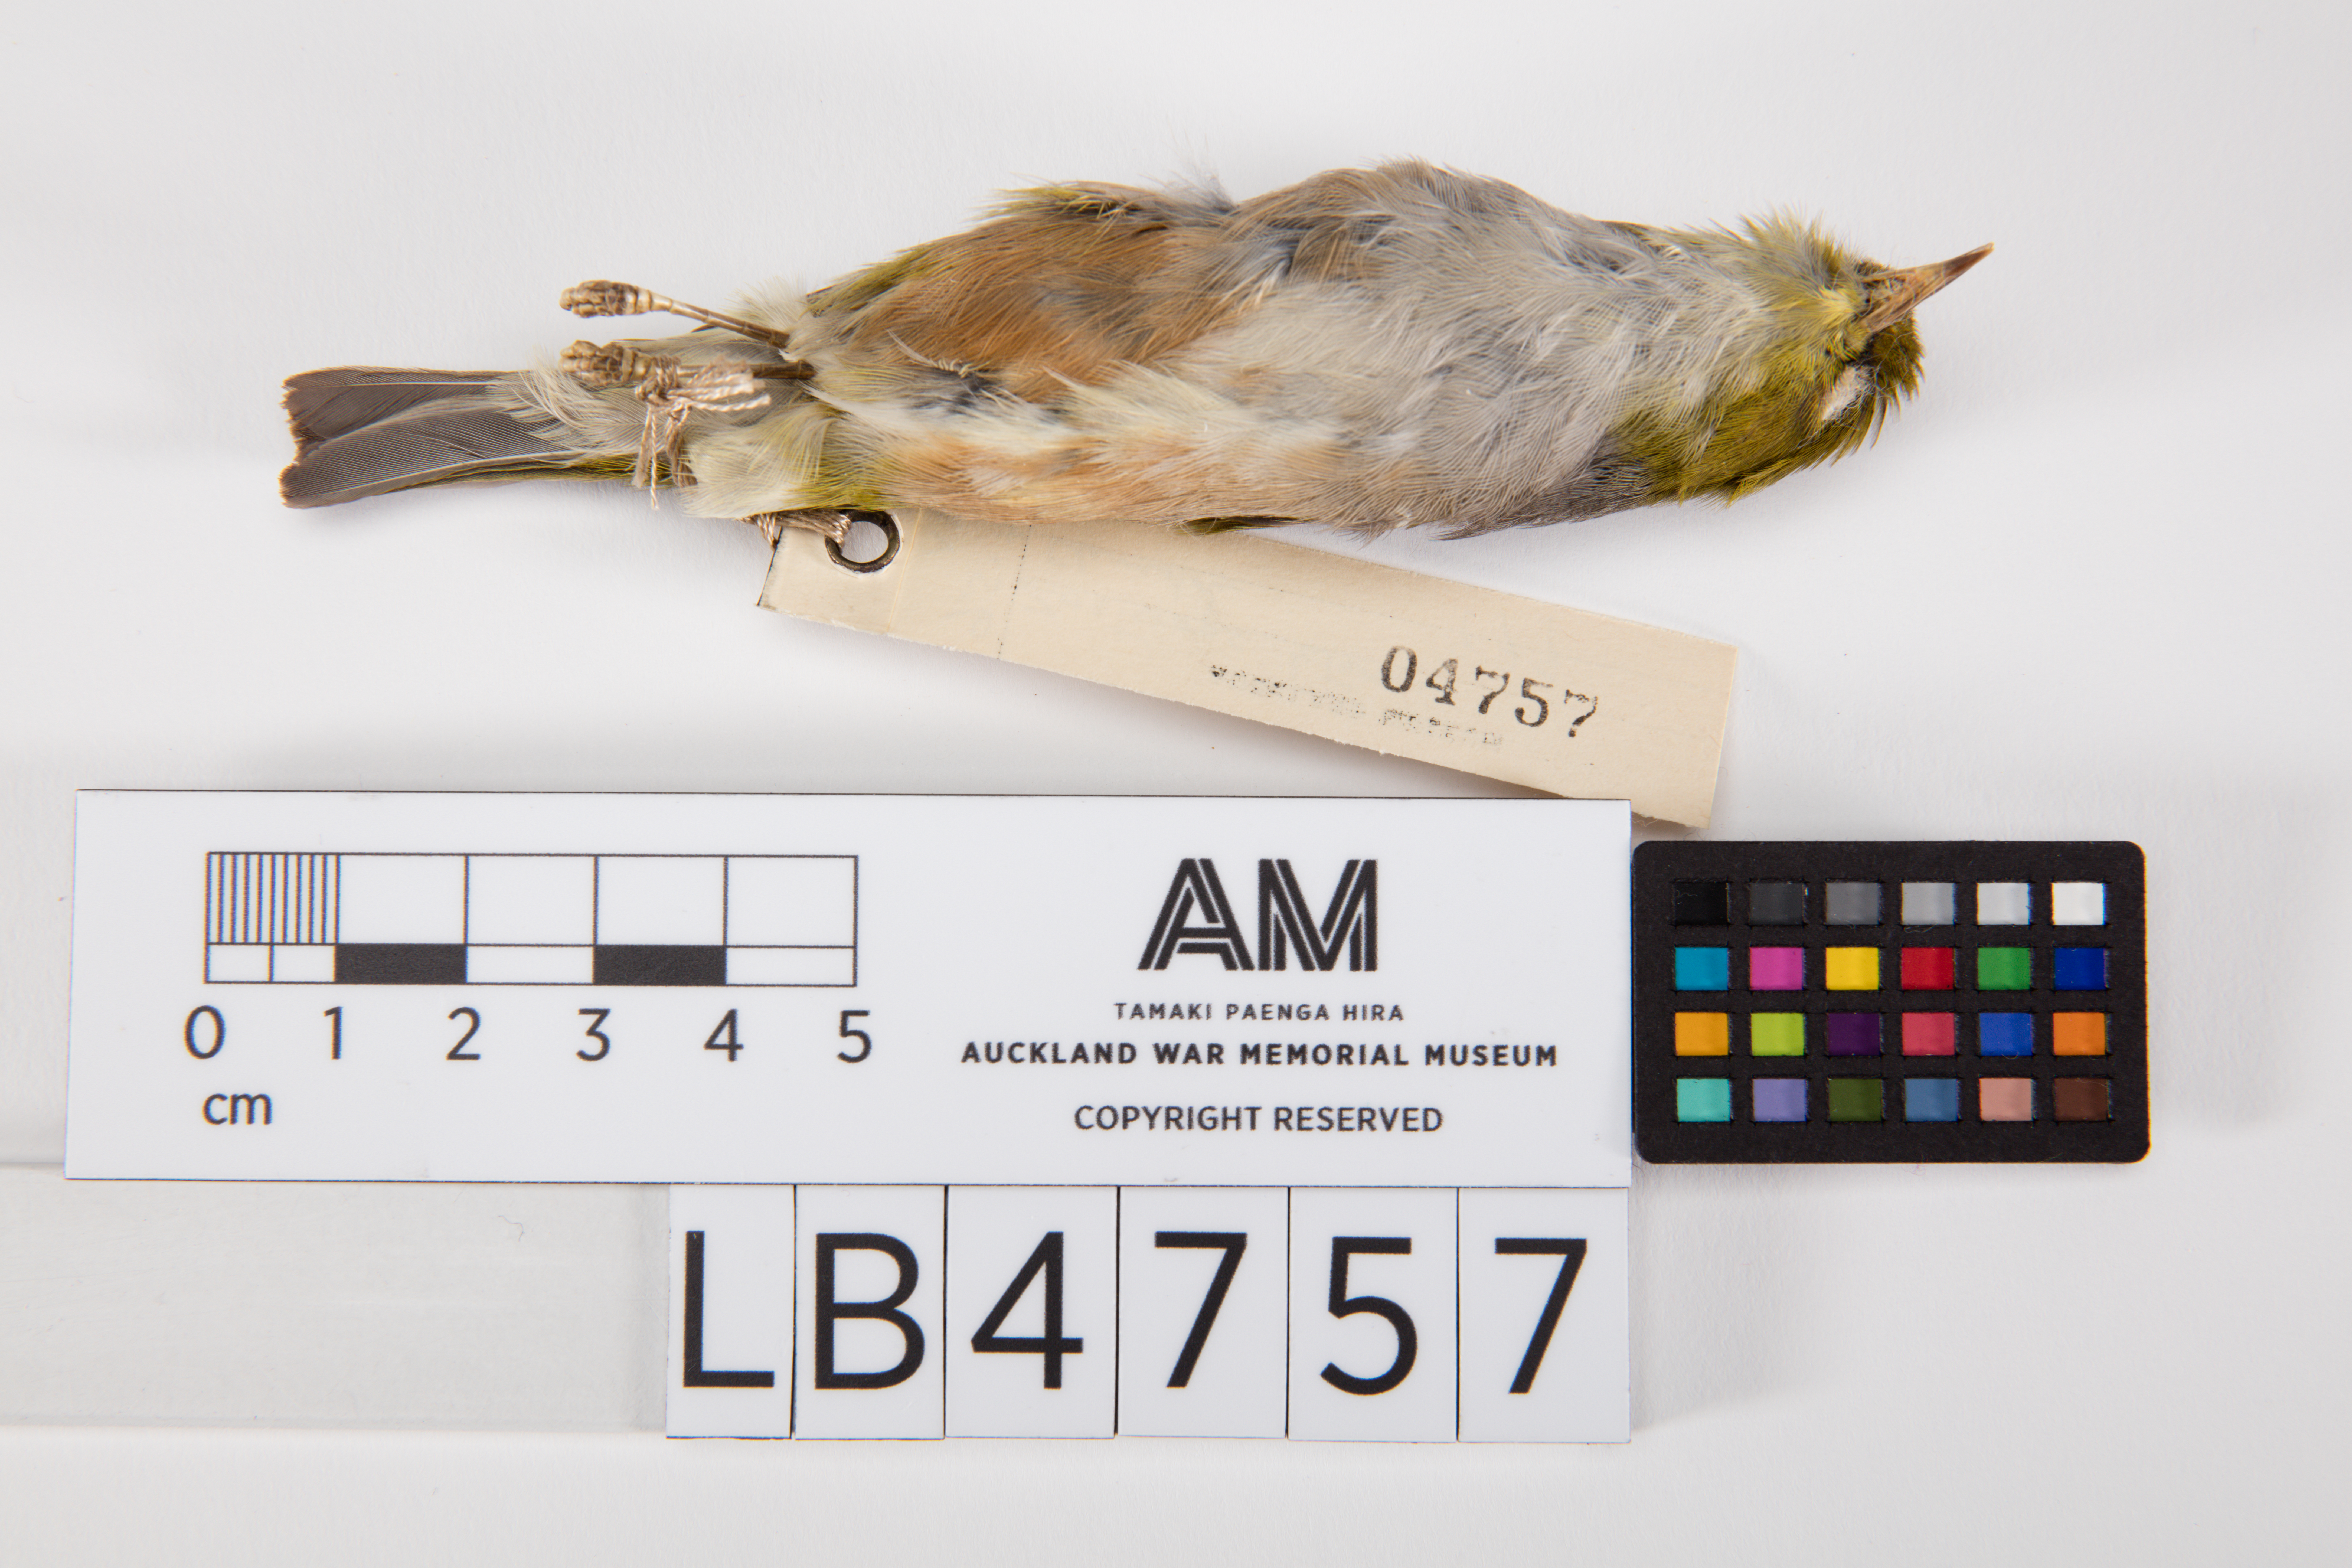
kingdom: Animalia
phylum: Chordata
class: Aves
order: Passeriformes
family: Zosteropidae
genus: Zosterops
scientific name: Zosterops lateralis
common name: Silvereye
